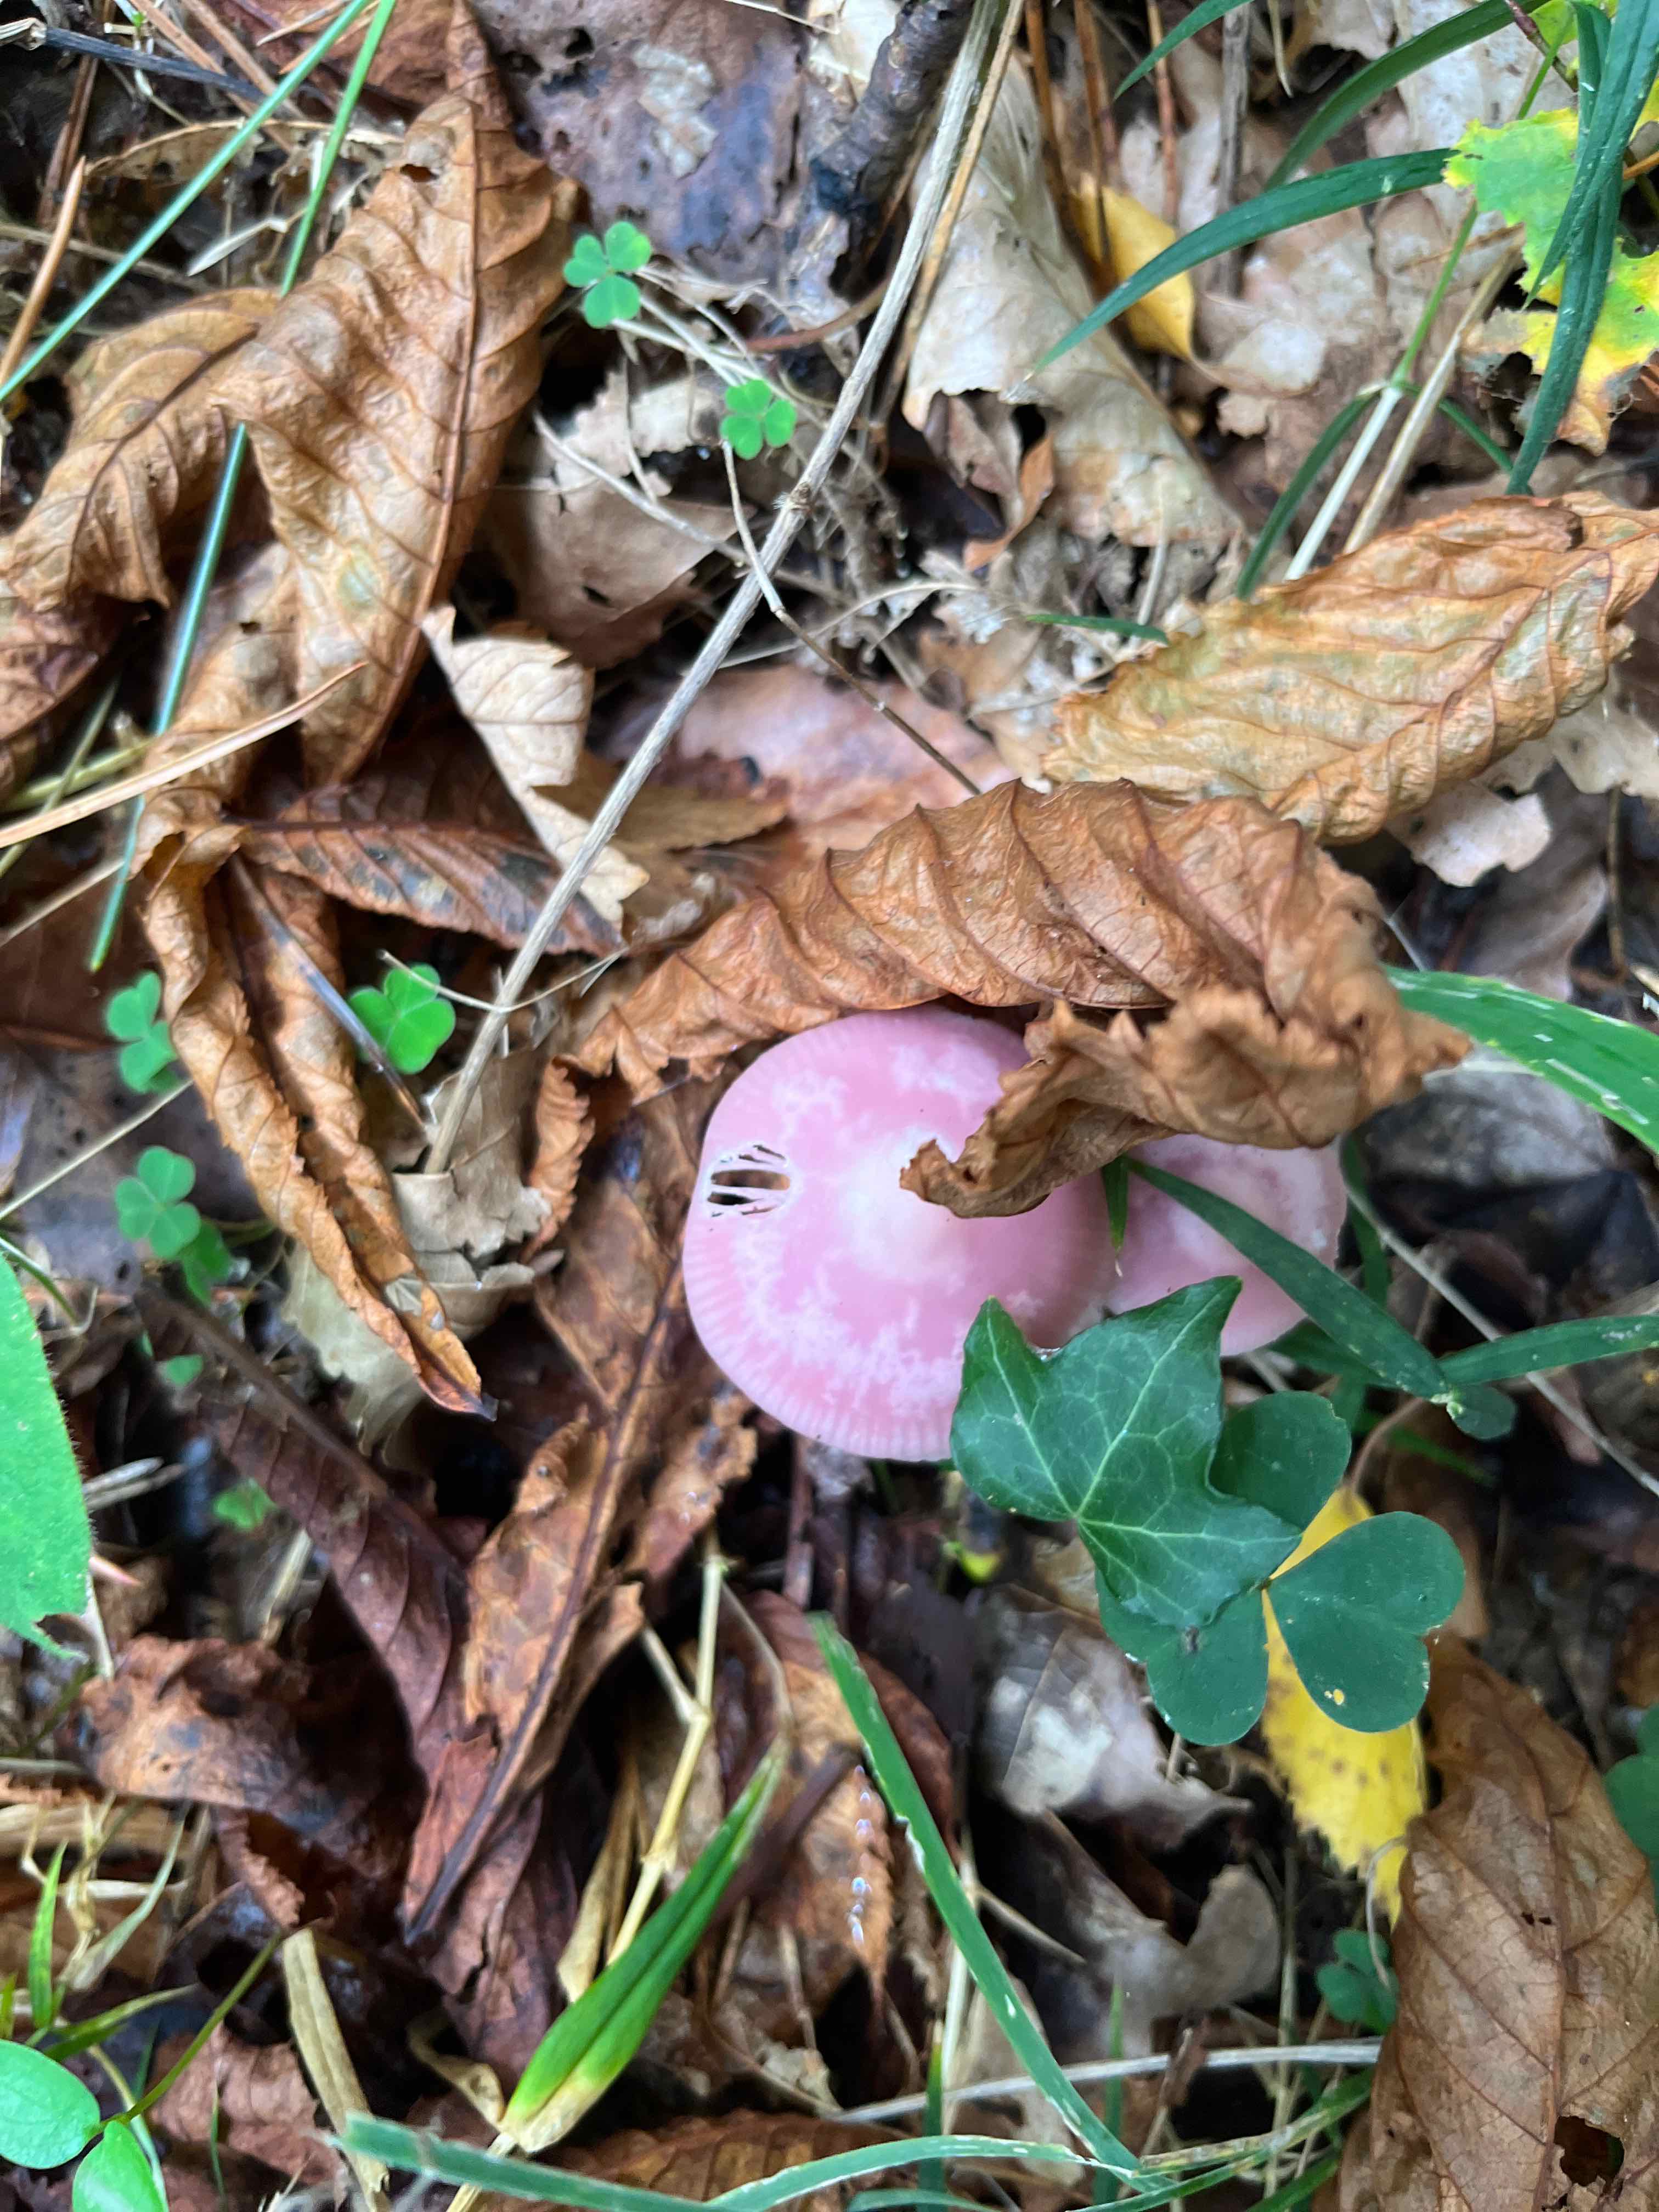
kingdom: Fungi
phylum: Basidiomycota
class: Agaricomycetes
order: Agaricales
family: Mycenaceae
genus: Mycena
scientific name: Mycena rosea
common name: rosa huesvamp
